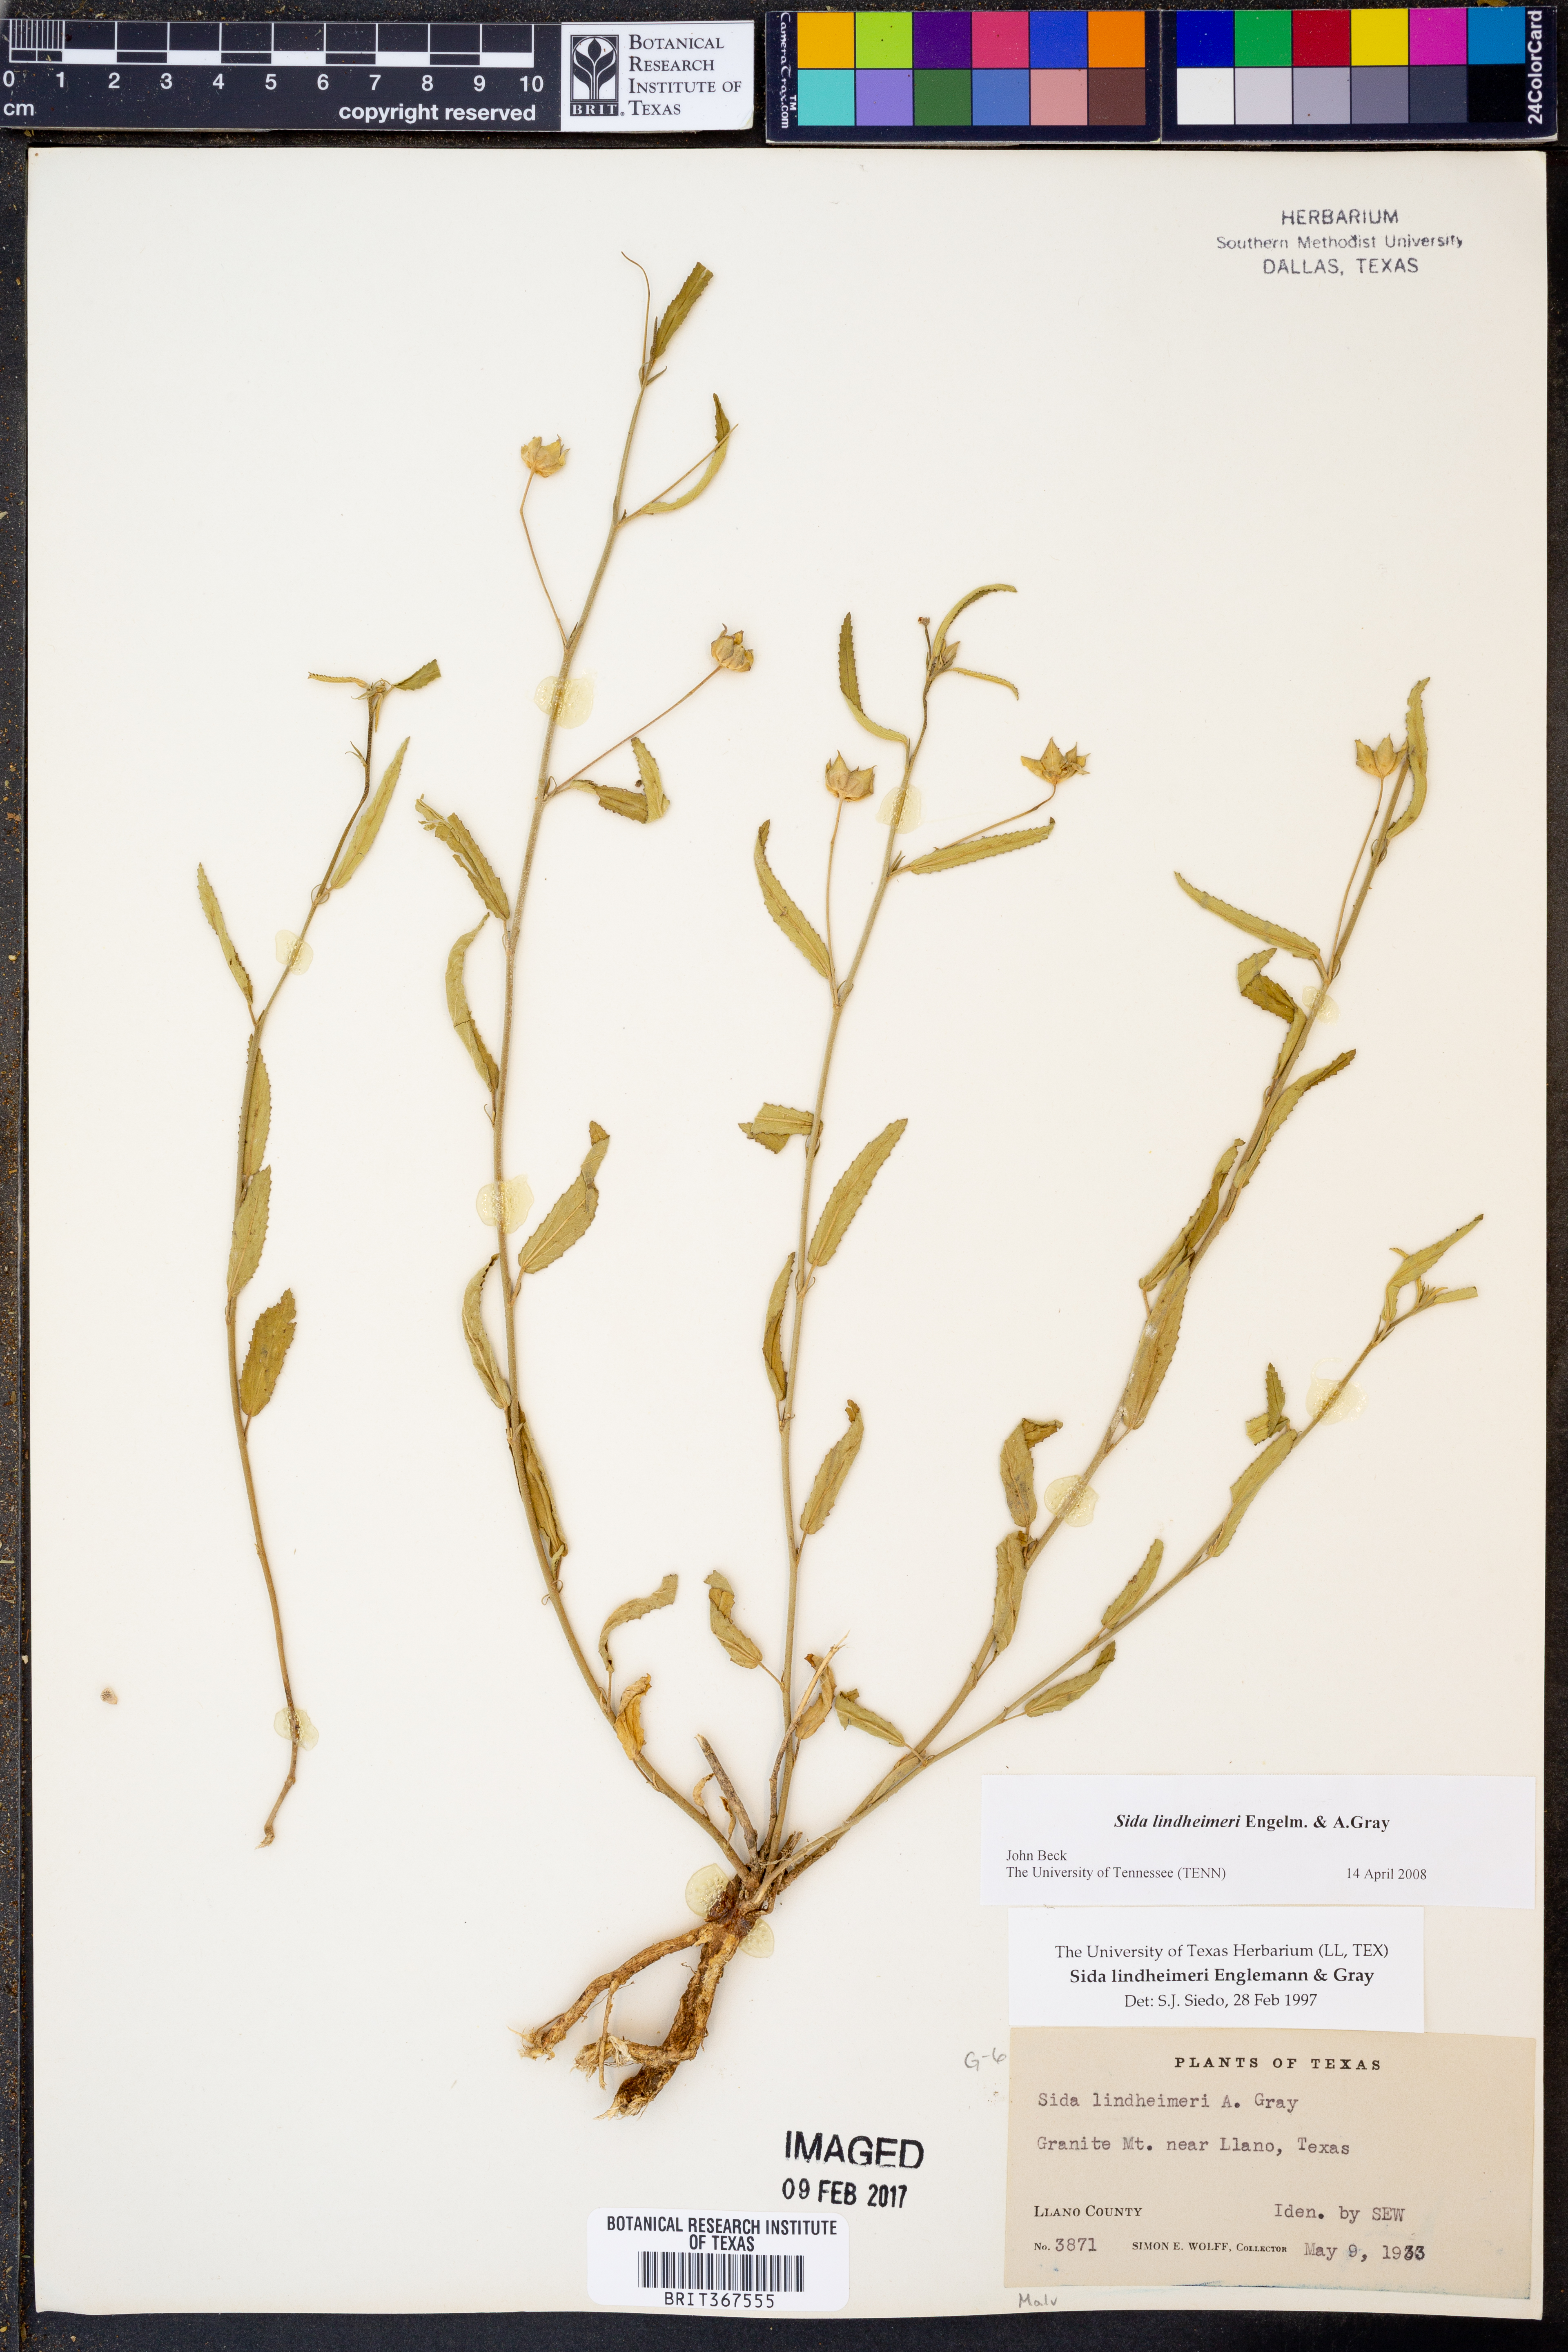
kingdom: Plantae
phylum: Tracheophyta
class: Magnoliopsida
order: Malvales
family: Malvaceae
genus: Sida
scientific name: Sida lindheimeri
